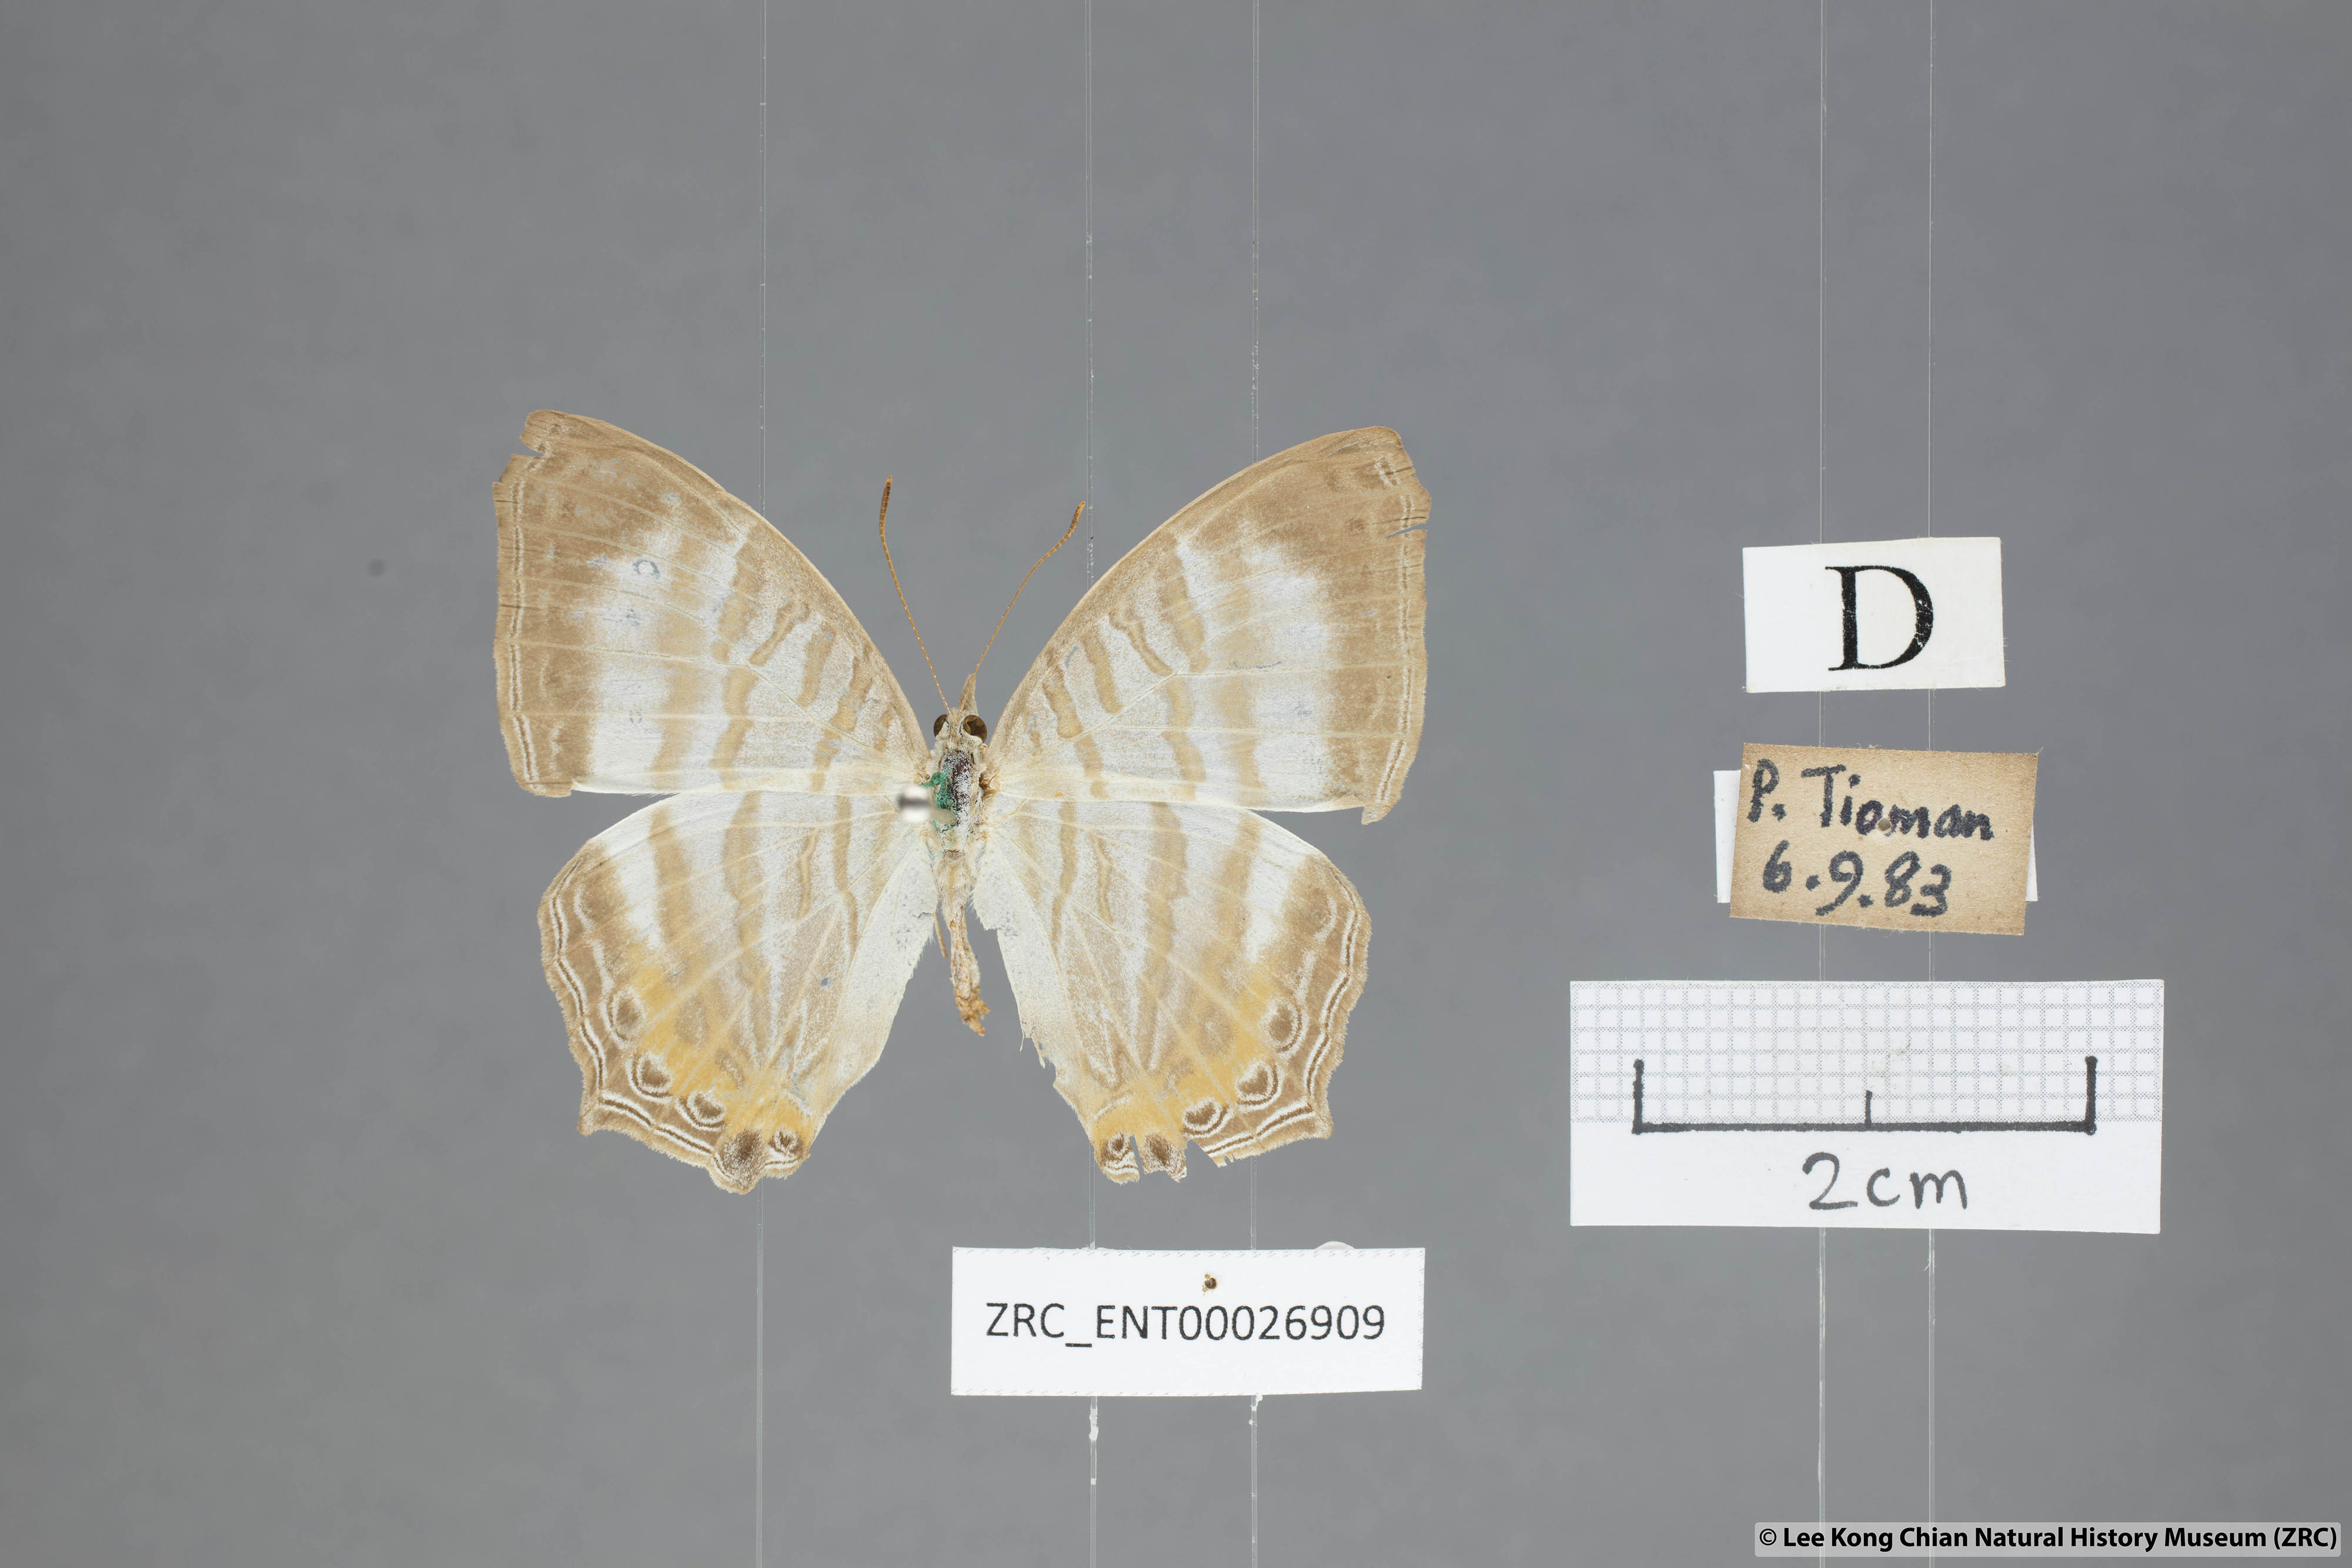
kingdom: Animalia
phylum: Arthropoda
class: Insecta
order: Lepidoptera
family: Nymphalidae
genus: Cyrestis
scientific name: Cyrestis themire
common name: Little mapwing
